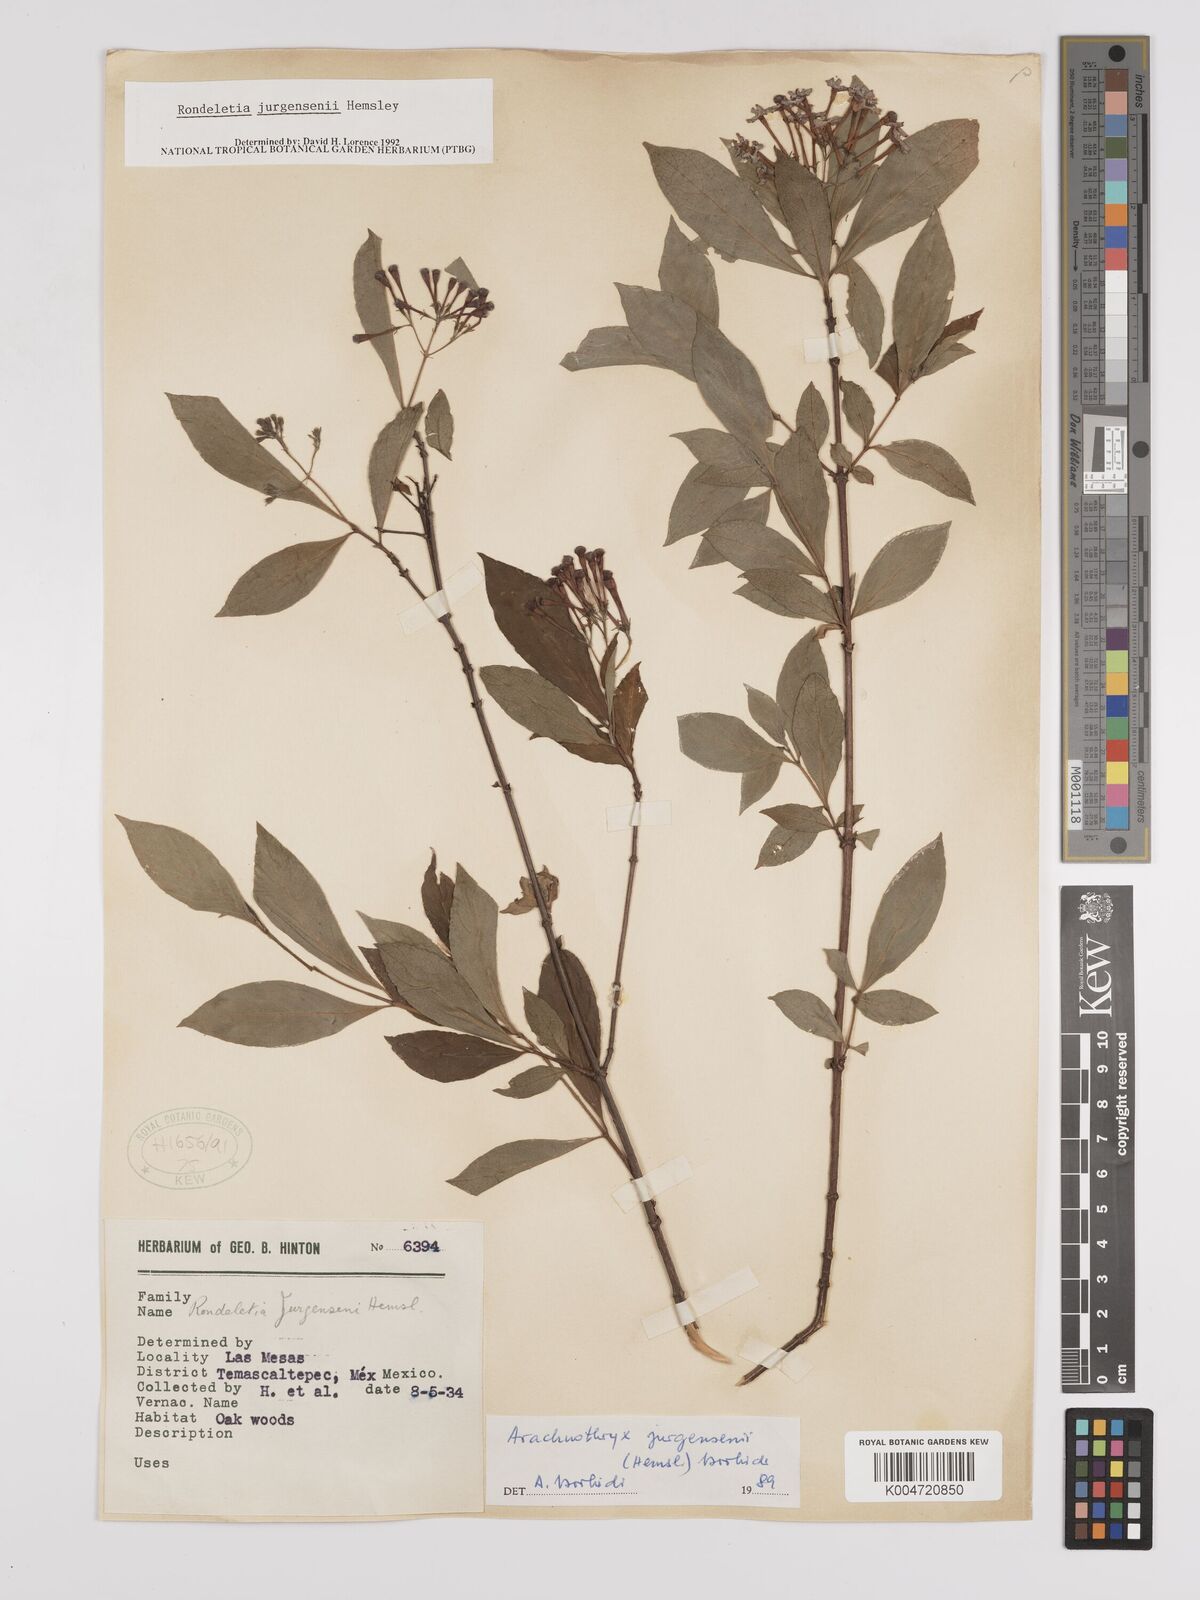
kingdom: Plantae
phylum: Tracheophyta
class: Magnoliopsida
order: Gentianales
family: Rubiaceae
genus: Arachnothryx
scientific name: Arachnothryx jurgensenii
